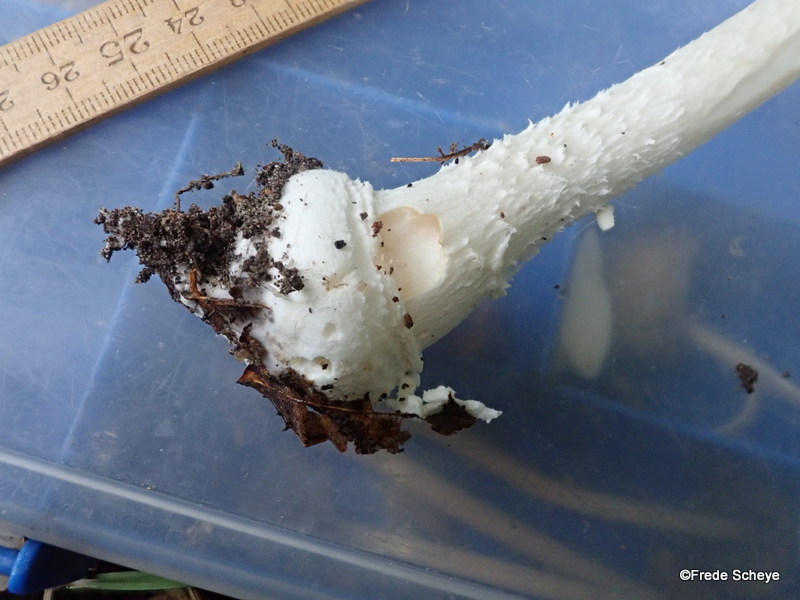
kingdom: Fungi
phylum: Basidiomycota
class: Agaricomycetes
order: Agaricales
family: Amanitaceae
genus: Amanita
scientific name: Amanita pantherina
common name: panter-fluesvamp
